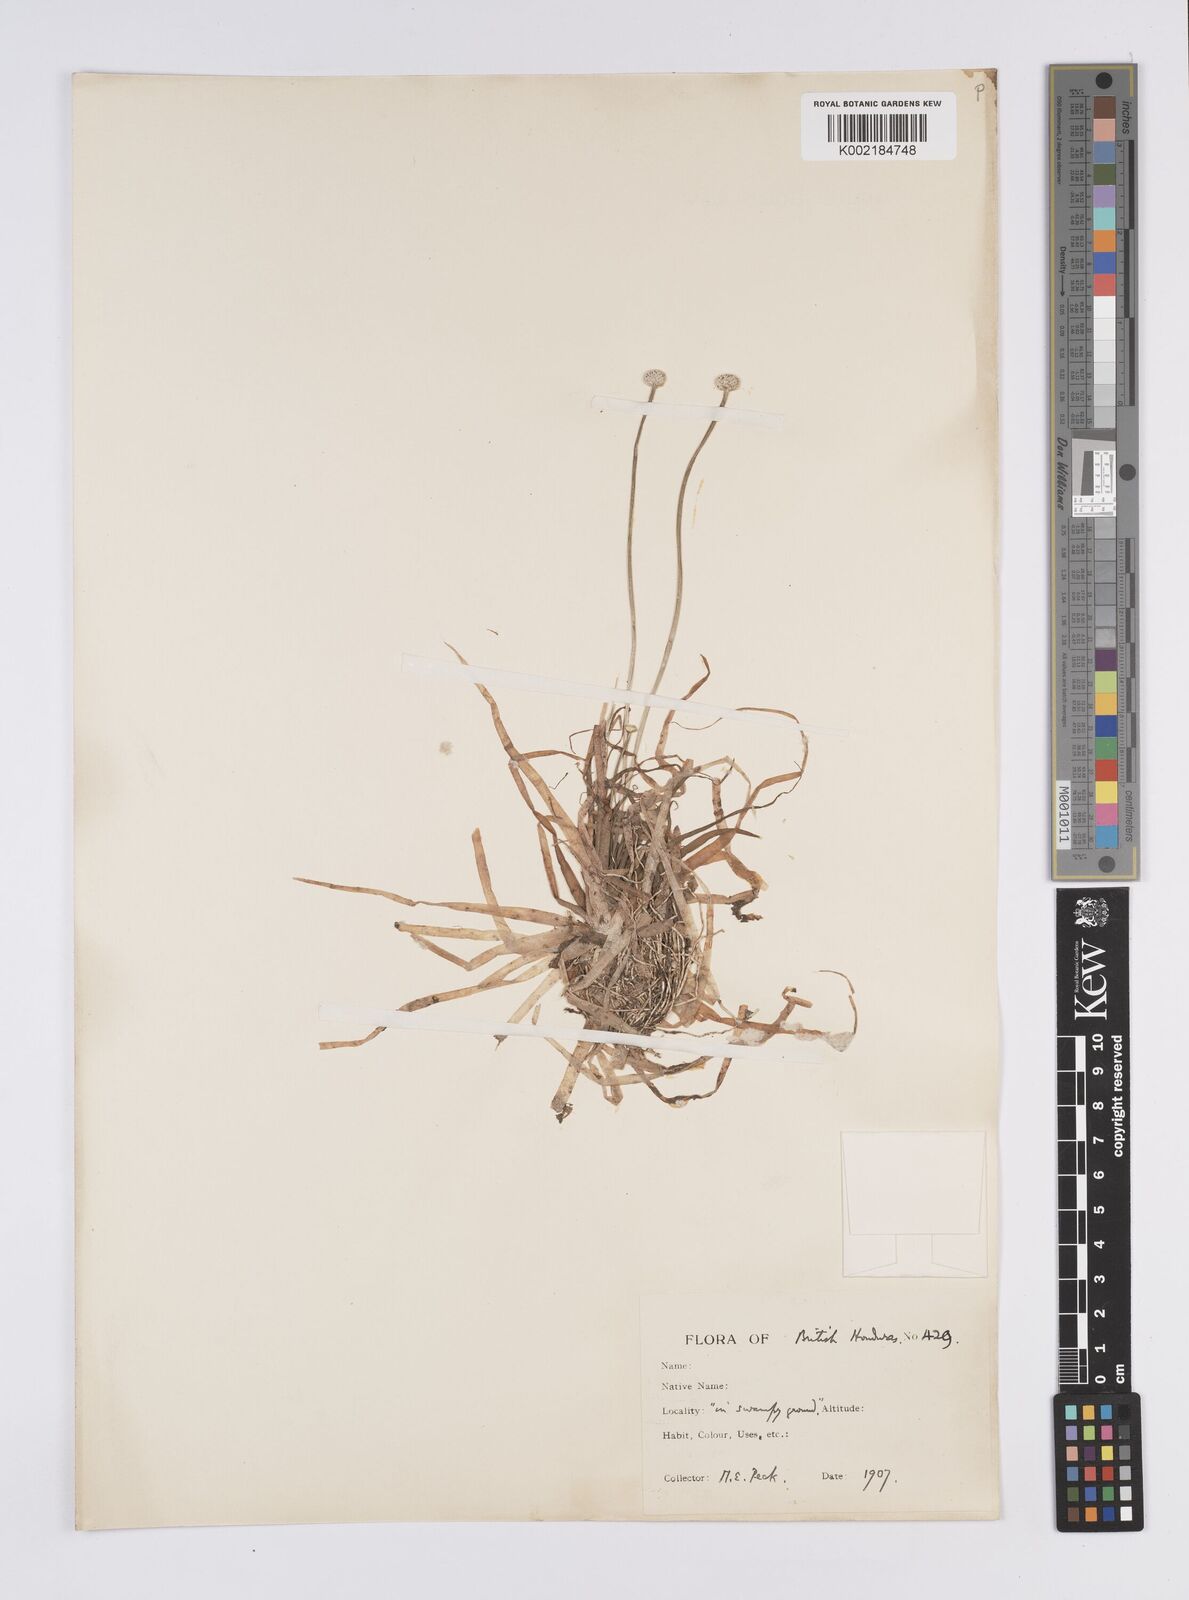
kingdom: Plantae
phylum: Tracheophyta
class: Liliopsida
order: Poales
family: Eriocaulaceae
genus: Eriocaulon
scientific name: Eriocaulon
